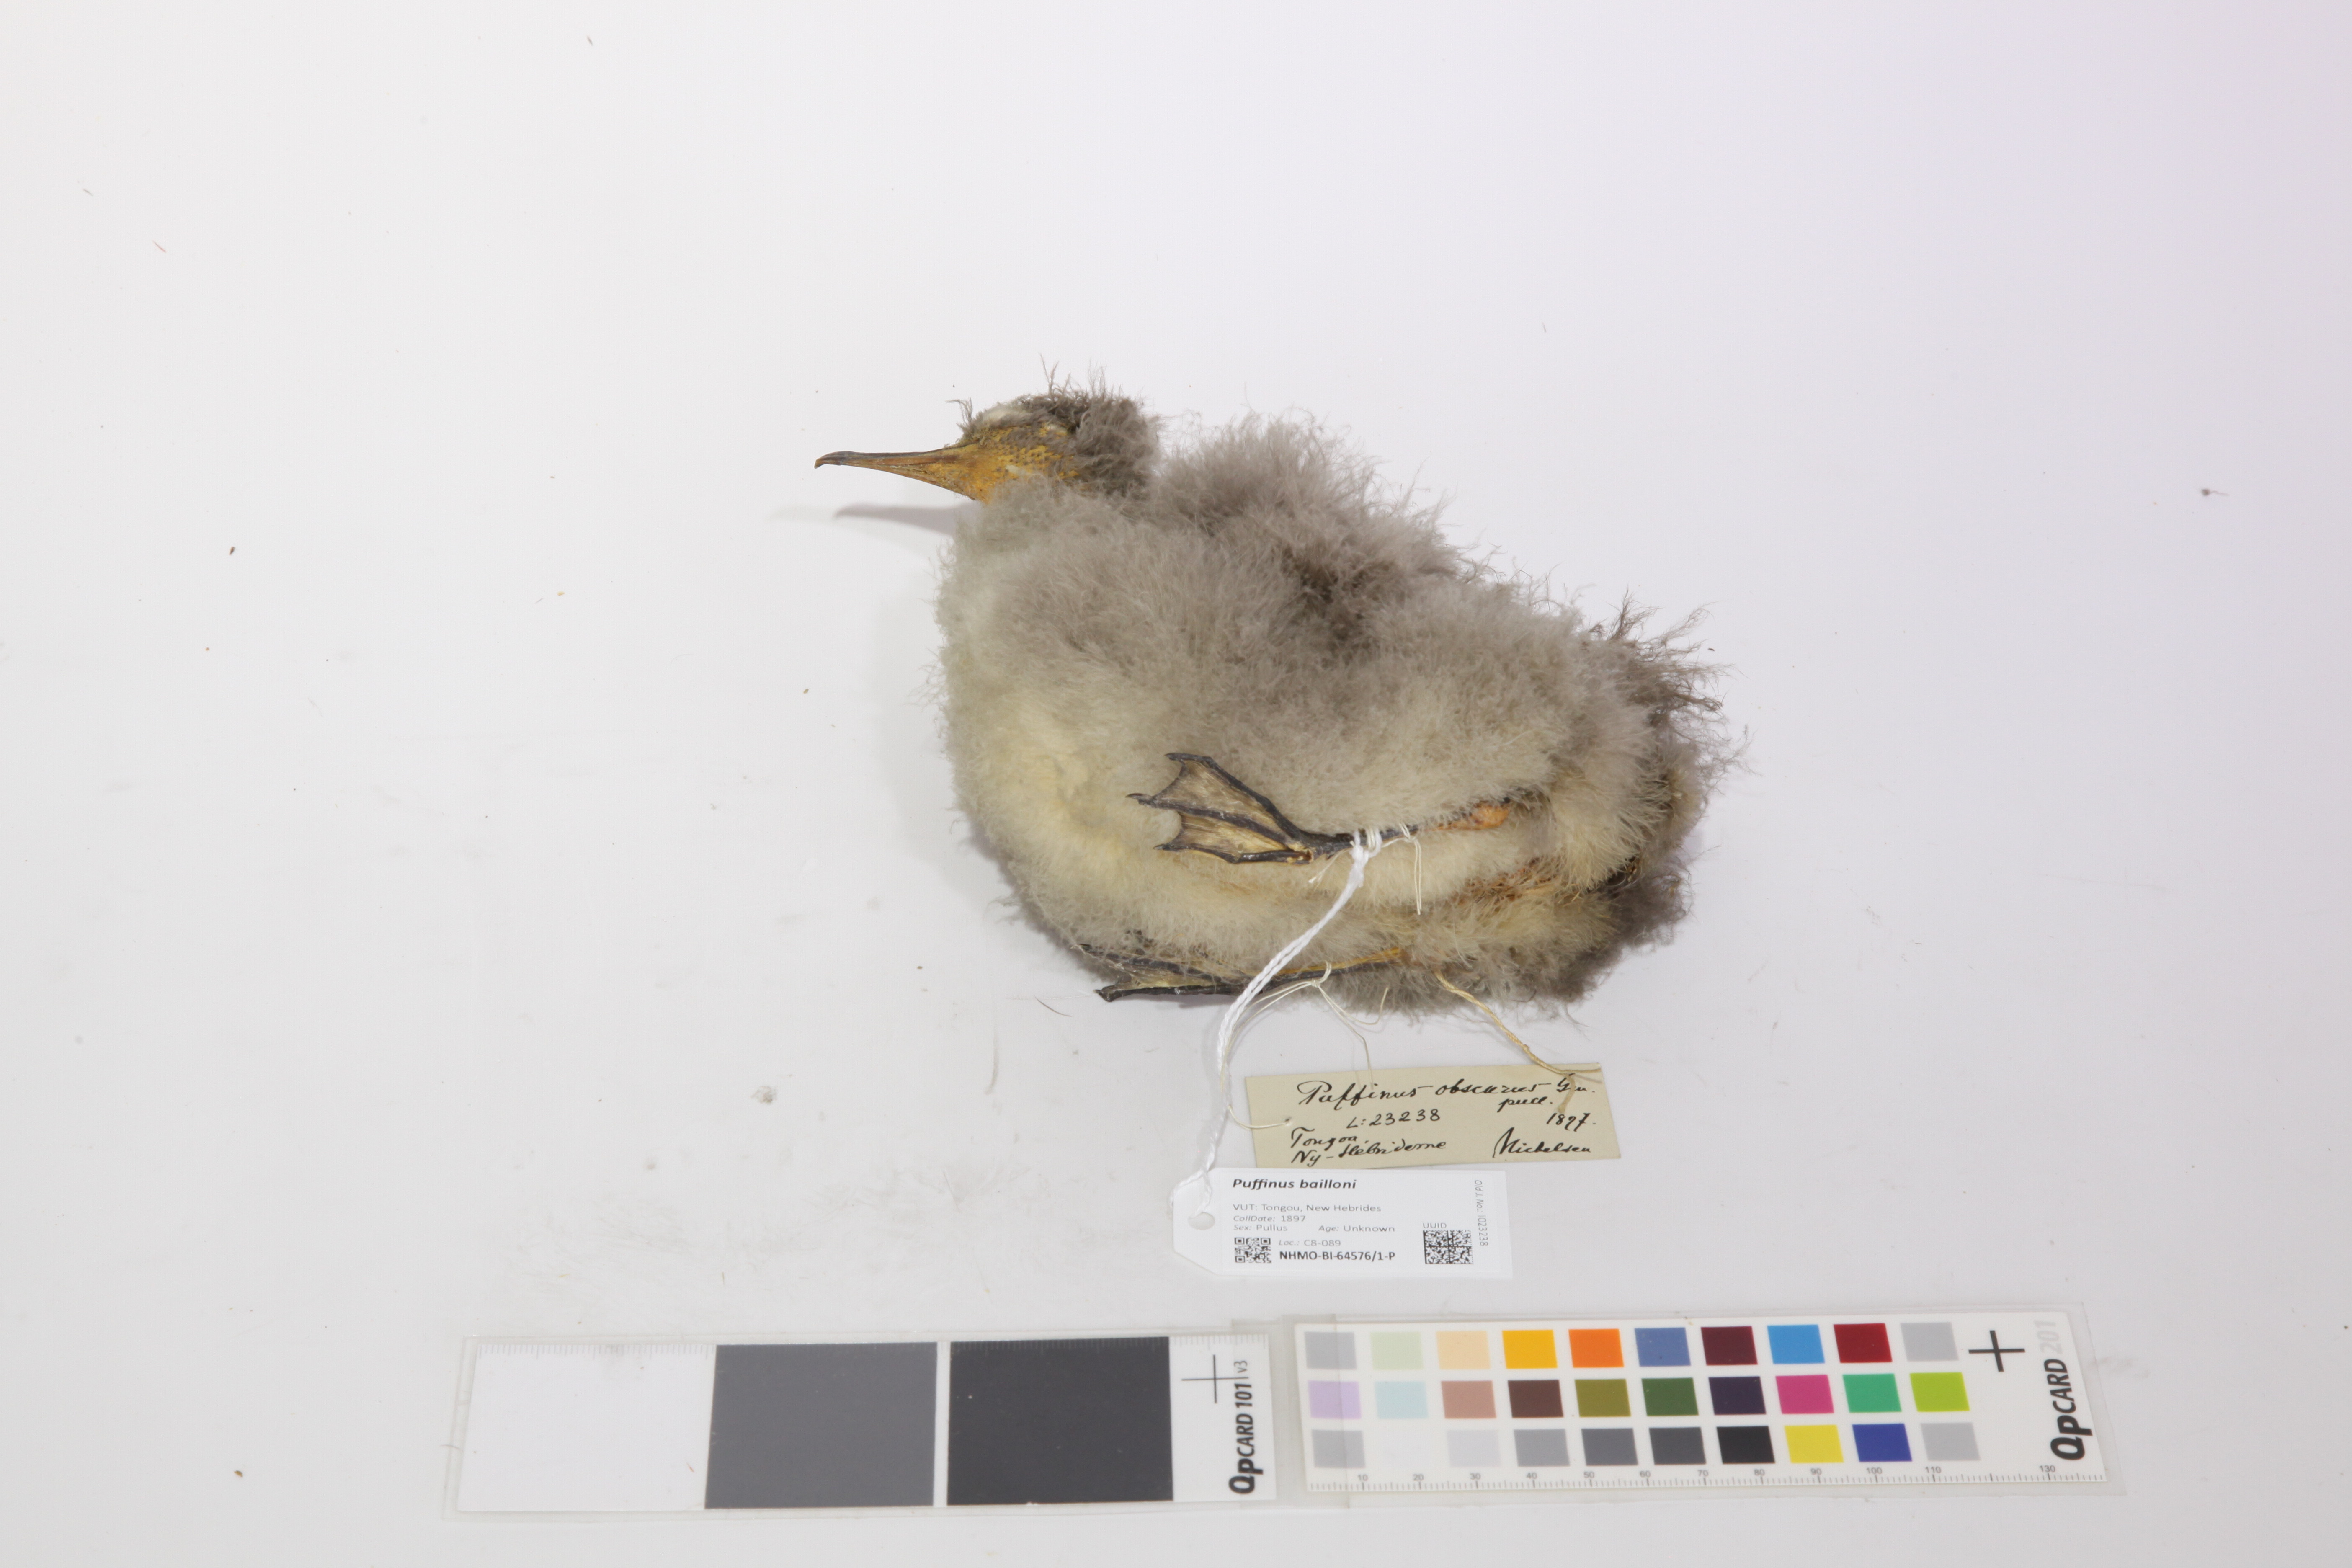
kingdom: Animalia
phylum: Chordata
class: Aves
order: Procellariiformes
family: Procellariidae
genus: Puffinus
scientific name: Puffinus bailloni
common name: Tropical shearwater
